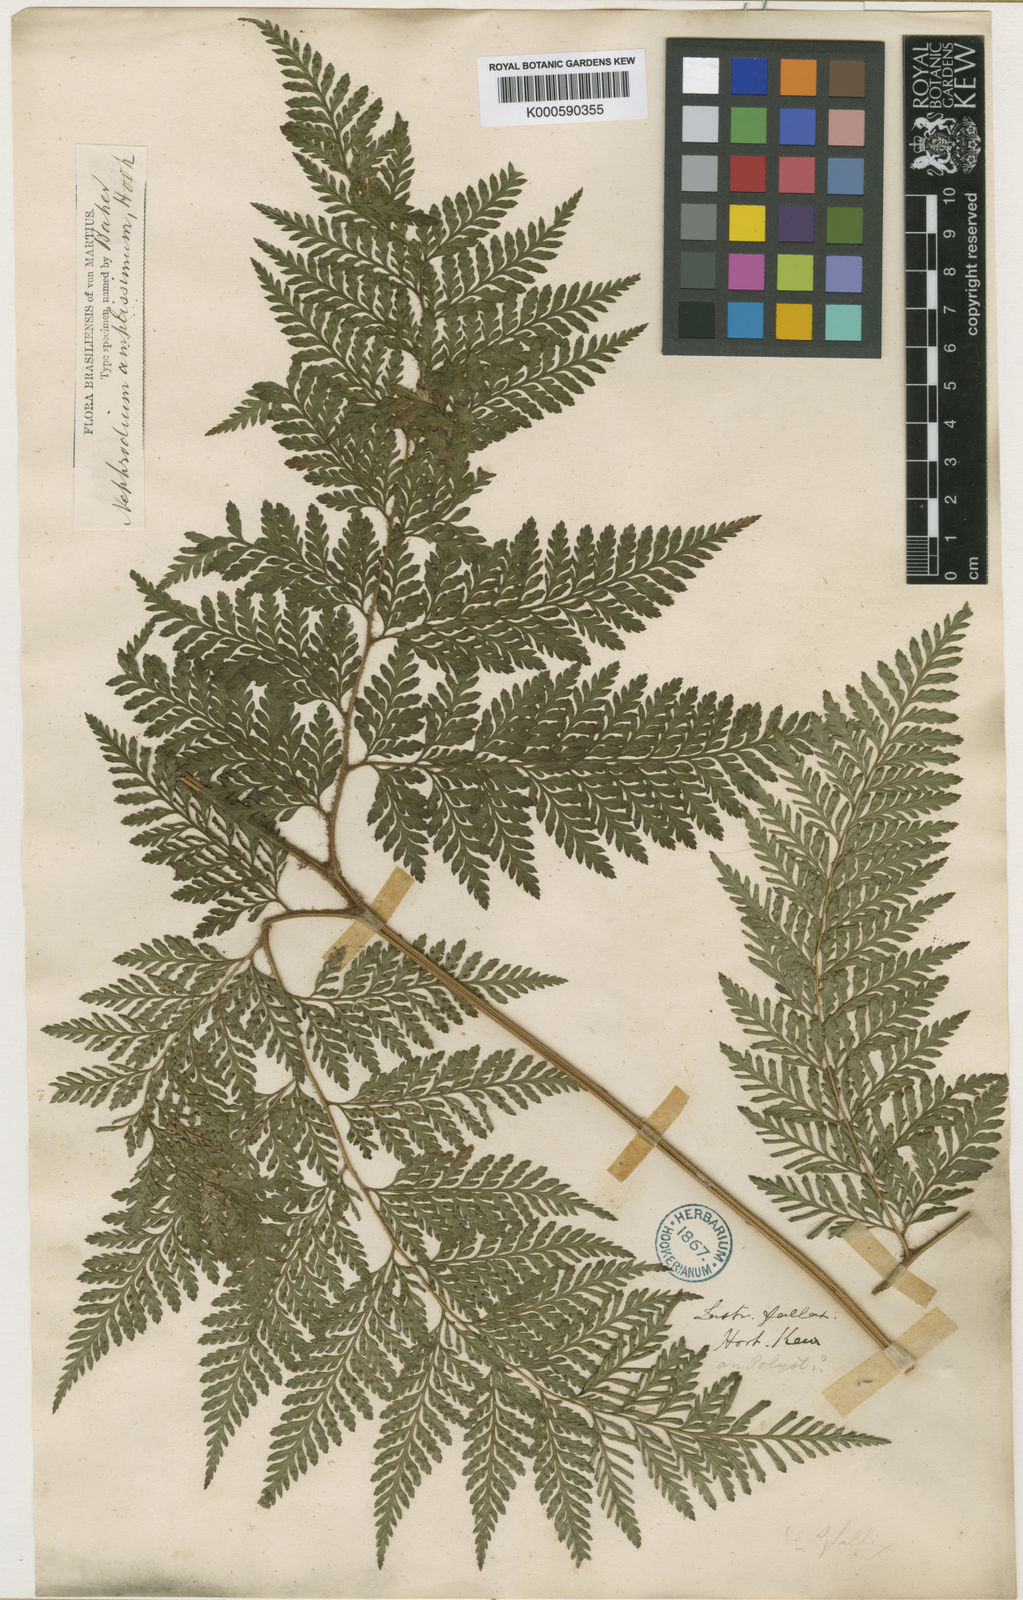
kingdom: Plantae
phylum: Tracheophyta
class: Polypodiopsida
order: Polypodiales
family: Dryopteridaceae
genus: Lastreopsis
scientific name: Lastreopsis amplissima
